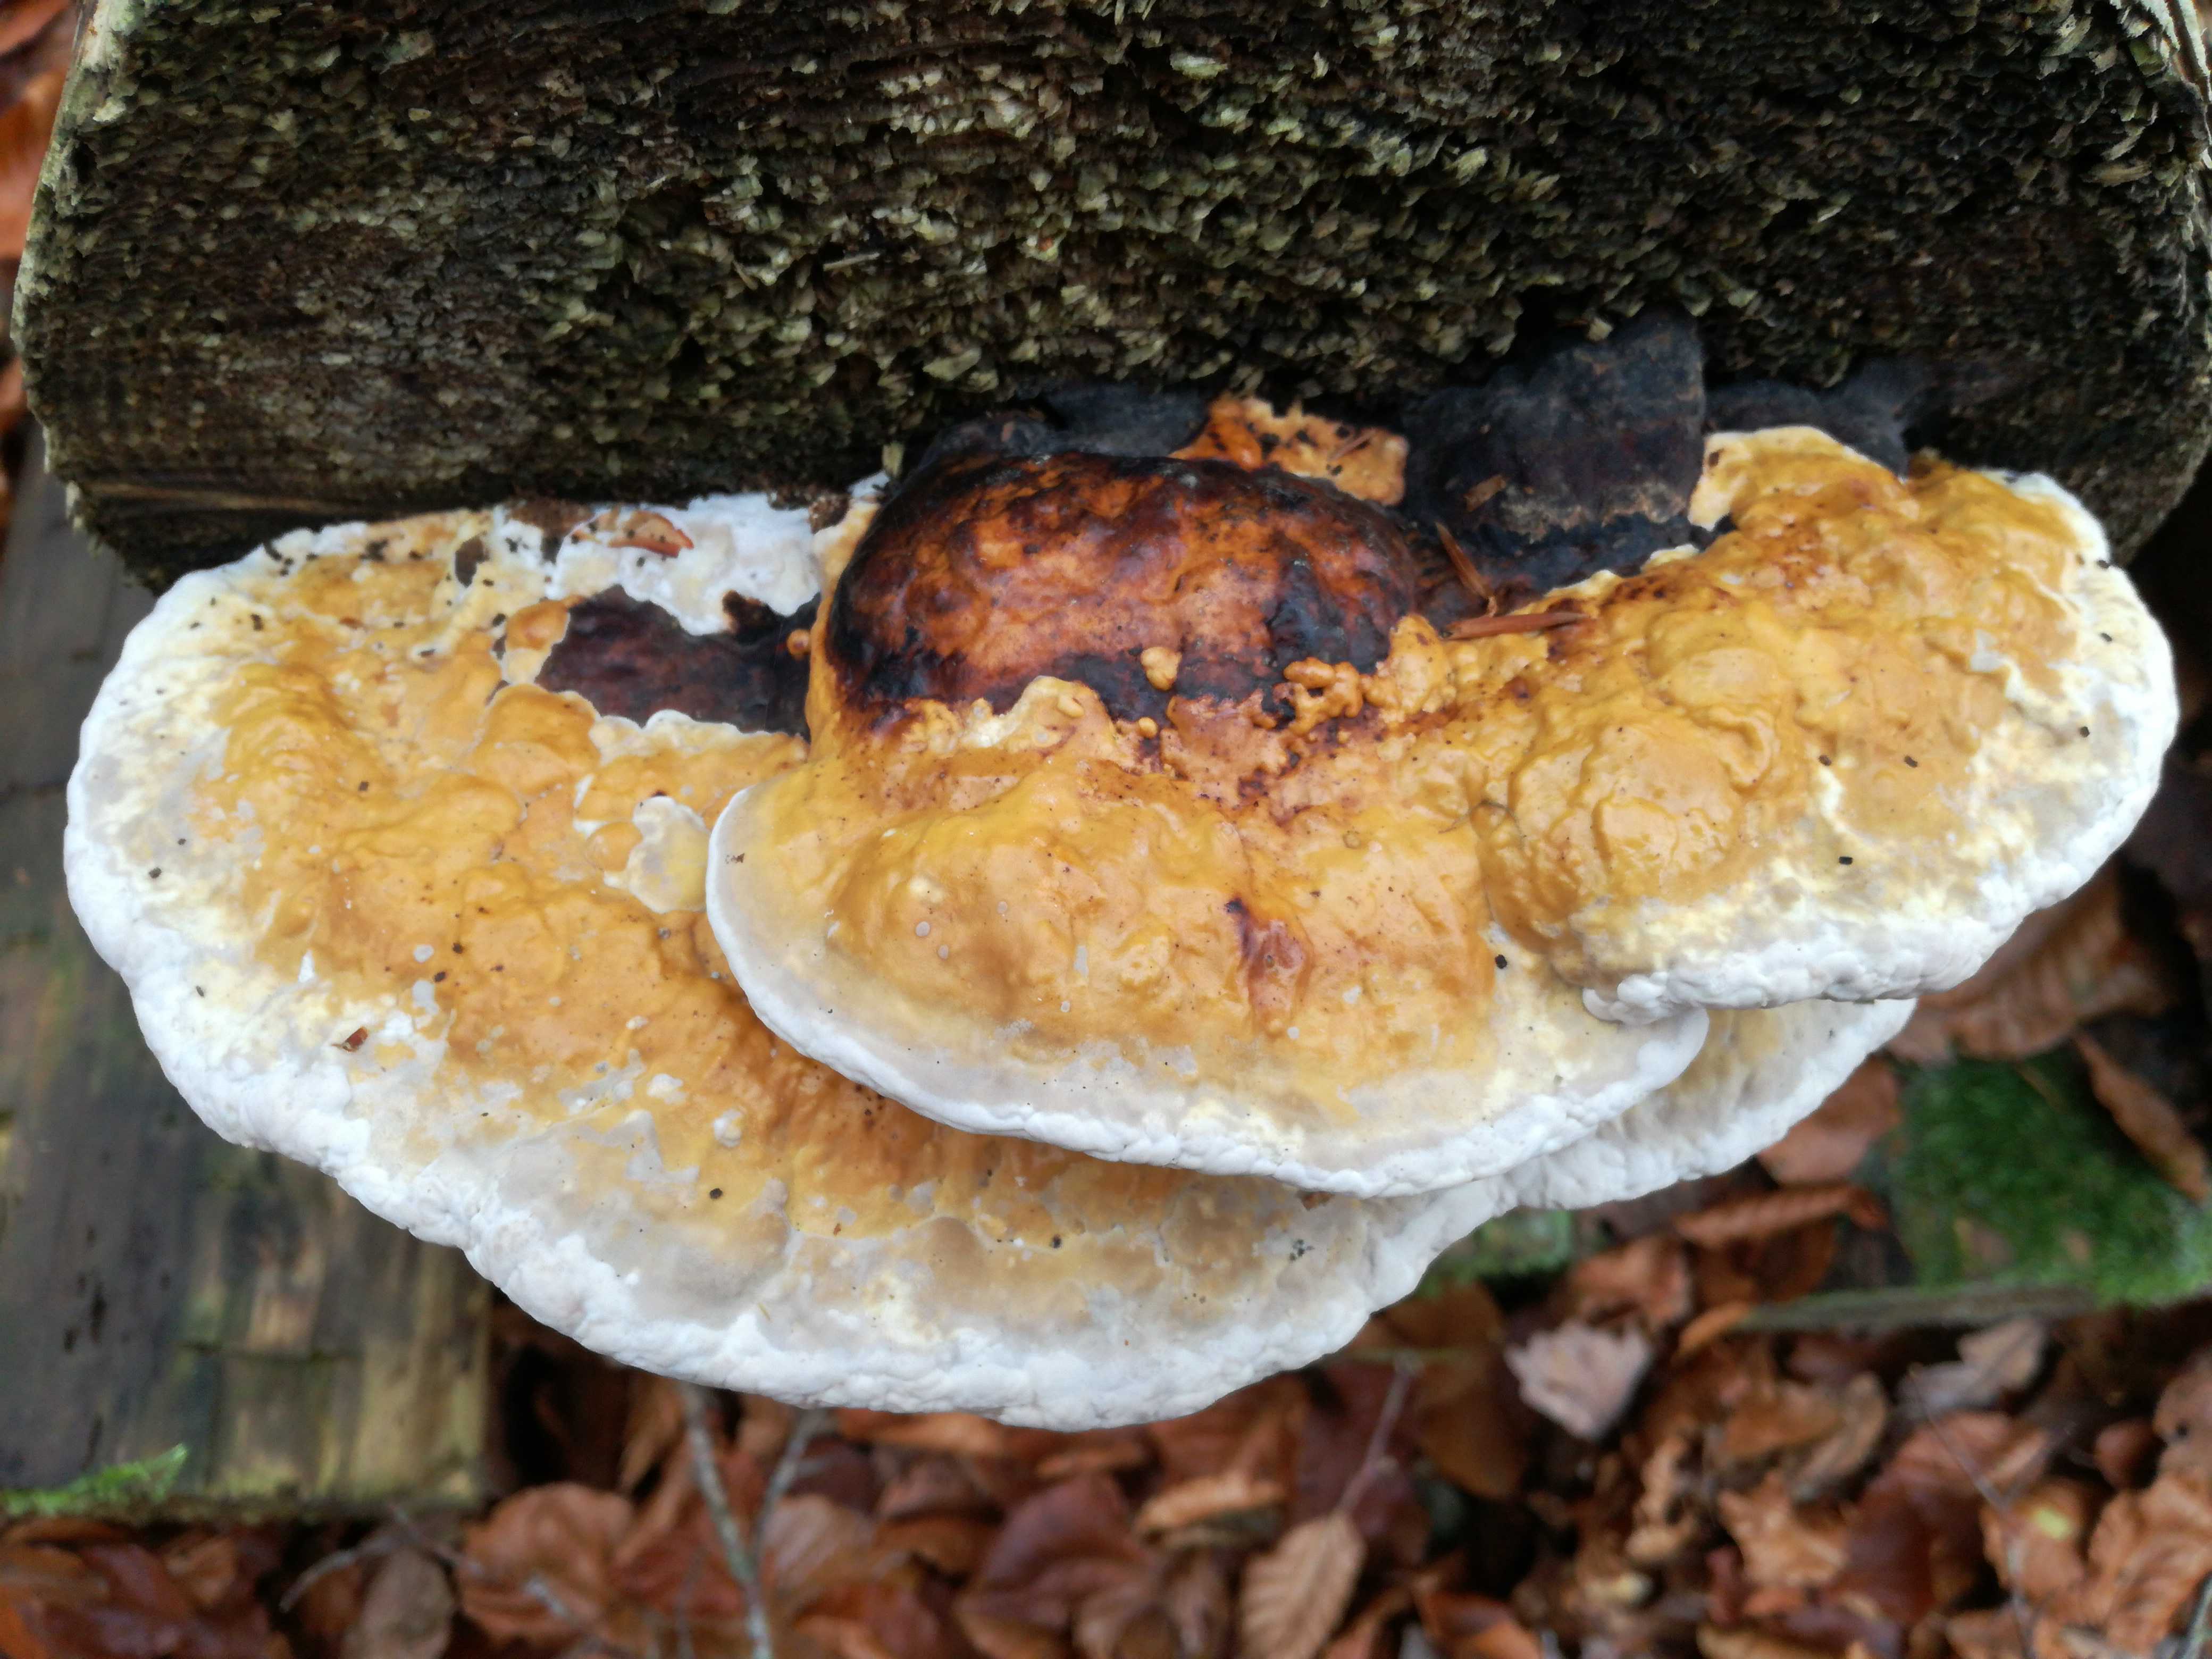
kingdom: Fungi
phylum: Basidiomycota
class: Agaricomycetes
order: Polyporales
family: Fomitopsidaceae
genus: Fomitopsis
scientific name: Fomitopsis pinicola
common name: randbæltet hovporesvamp
